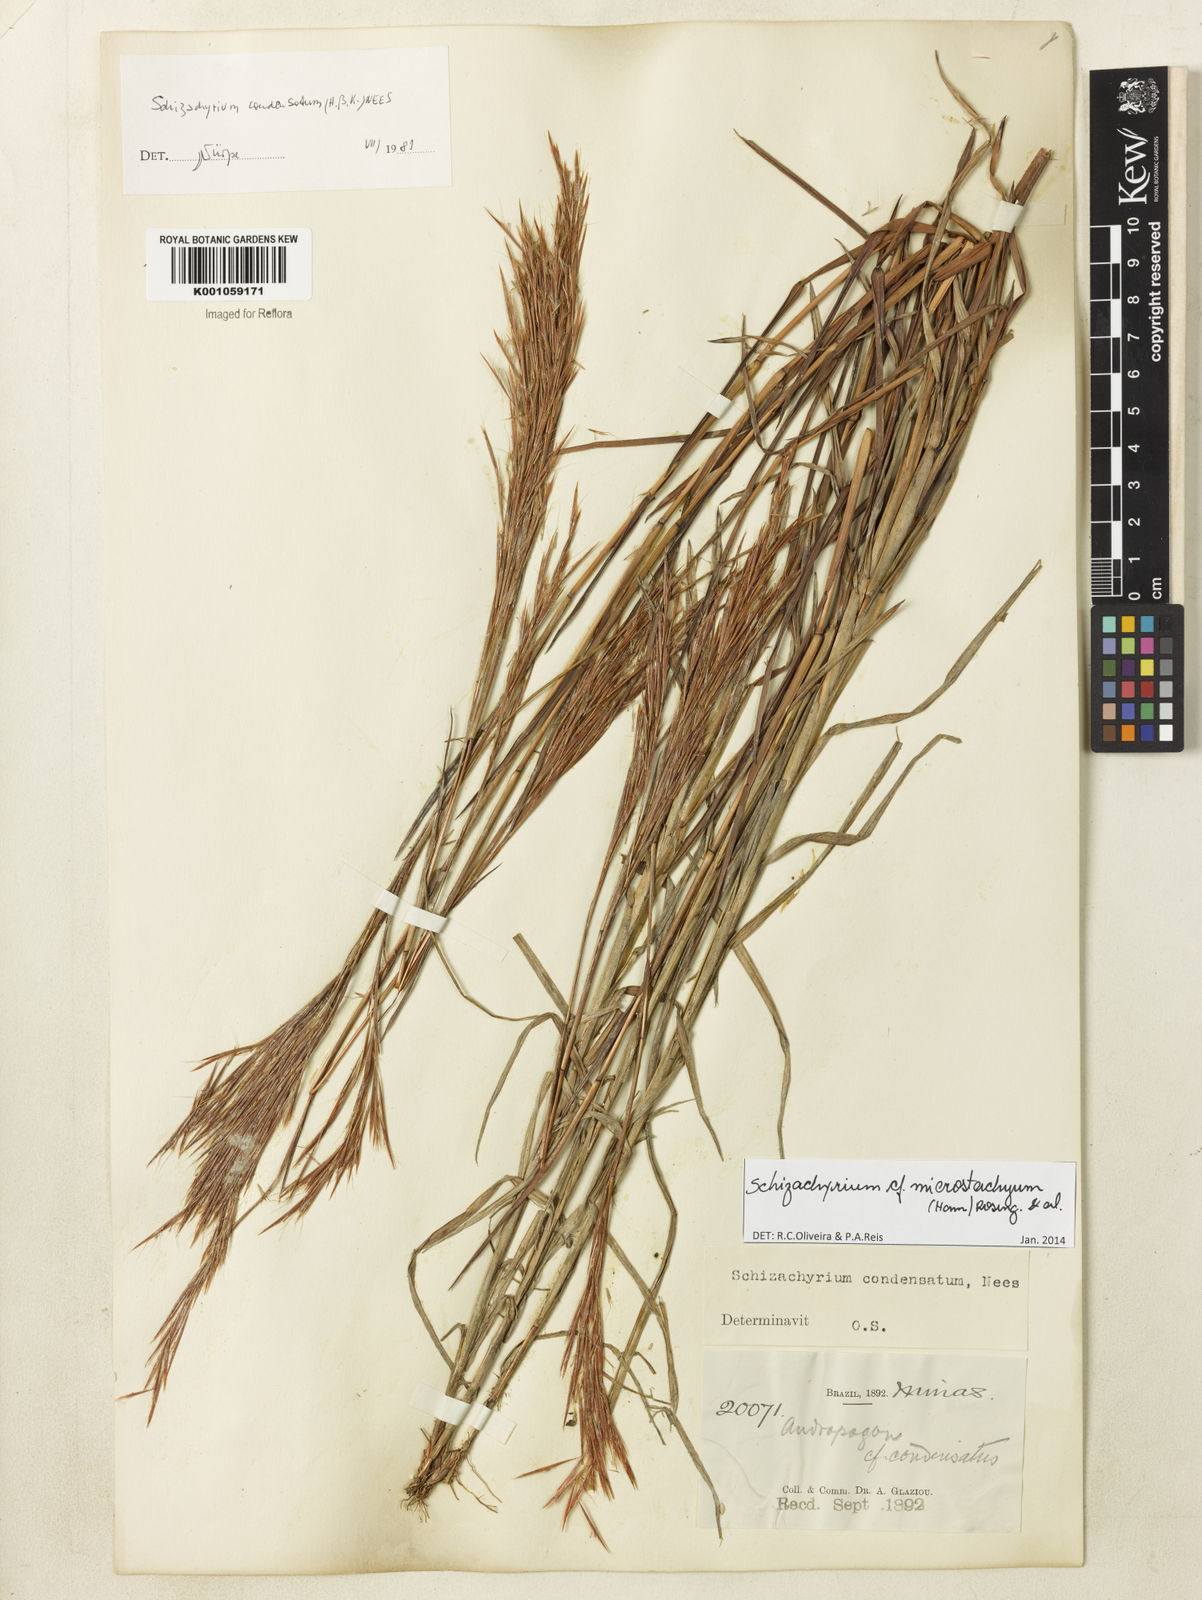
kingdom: Plantae
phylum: Tracheophyta
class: Liliopsida
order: Poales
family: Poaceae
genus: Schizachyrium
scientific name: Schizachyrium glaziovii
